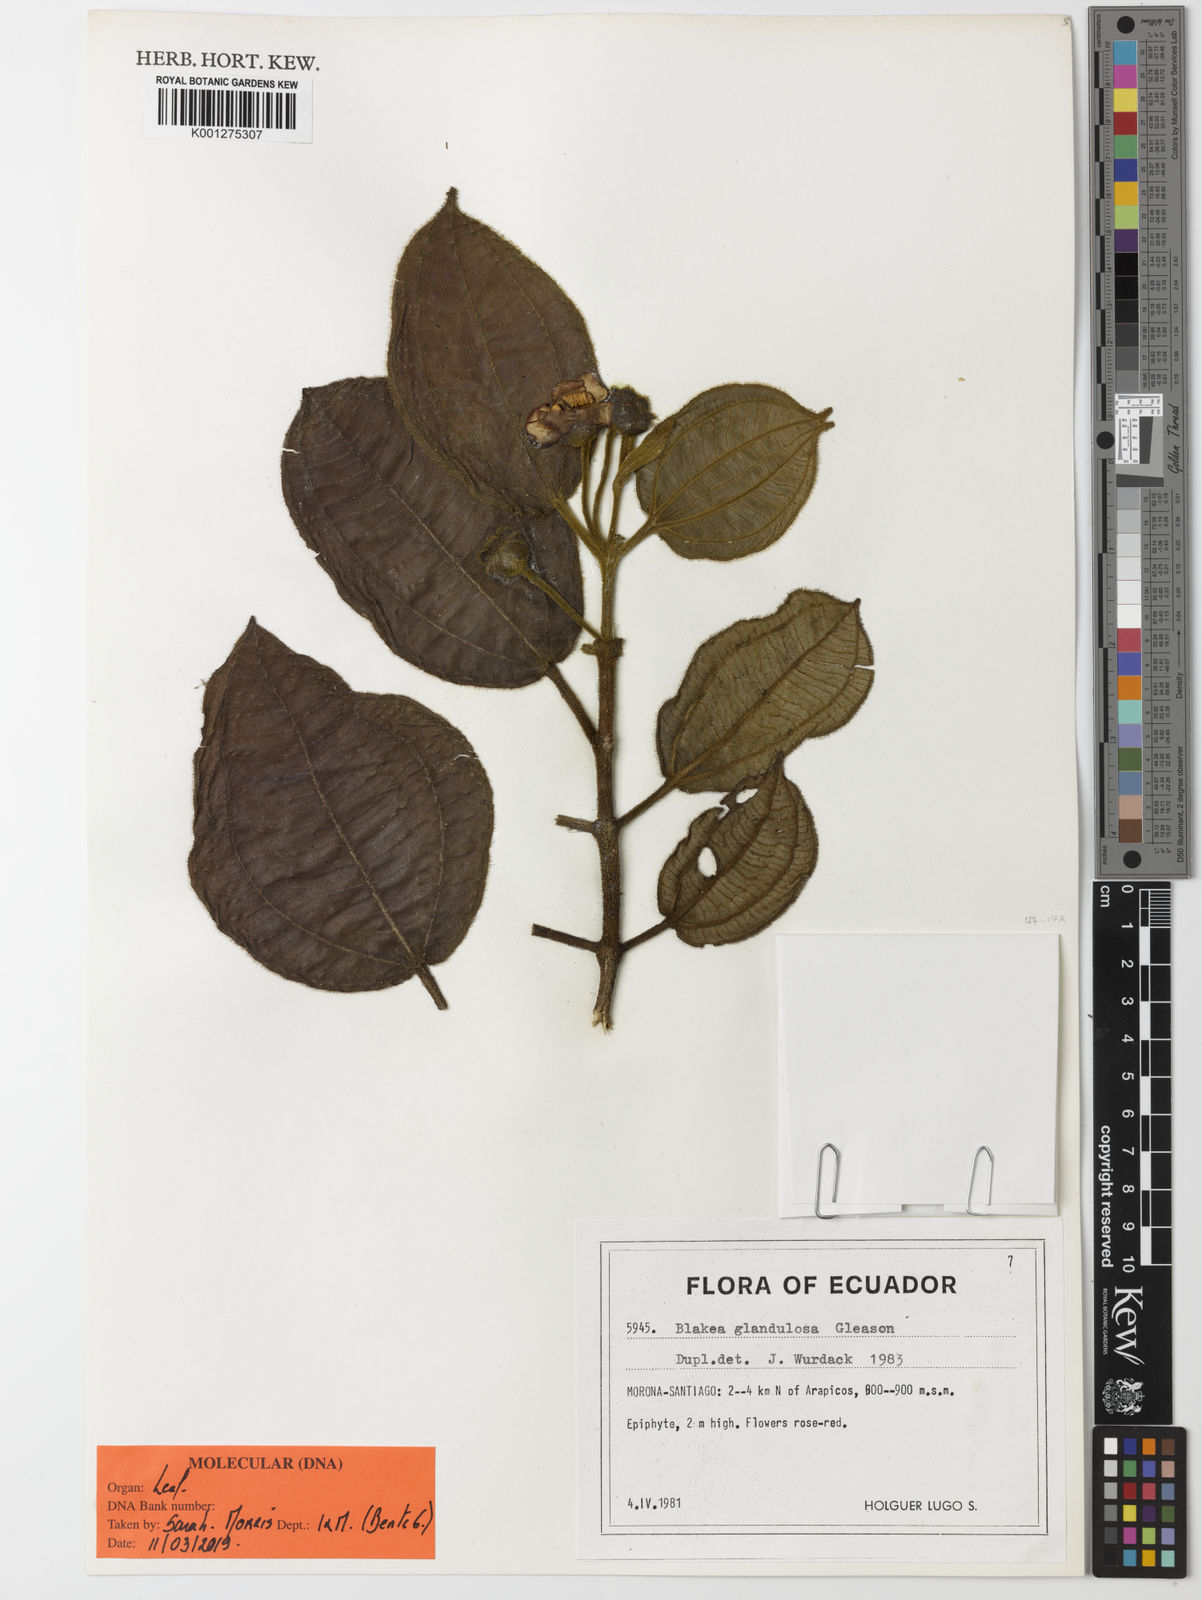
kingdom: Plantae
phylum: Tracheophyta
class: Magnoliopsida
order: Myrtales
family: Melastomataceae
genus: Blakea
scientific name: Blakea glandulosa
